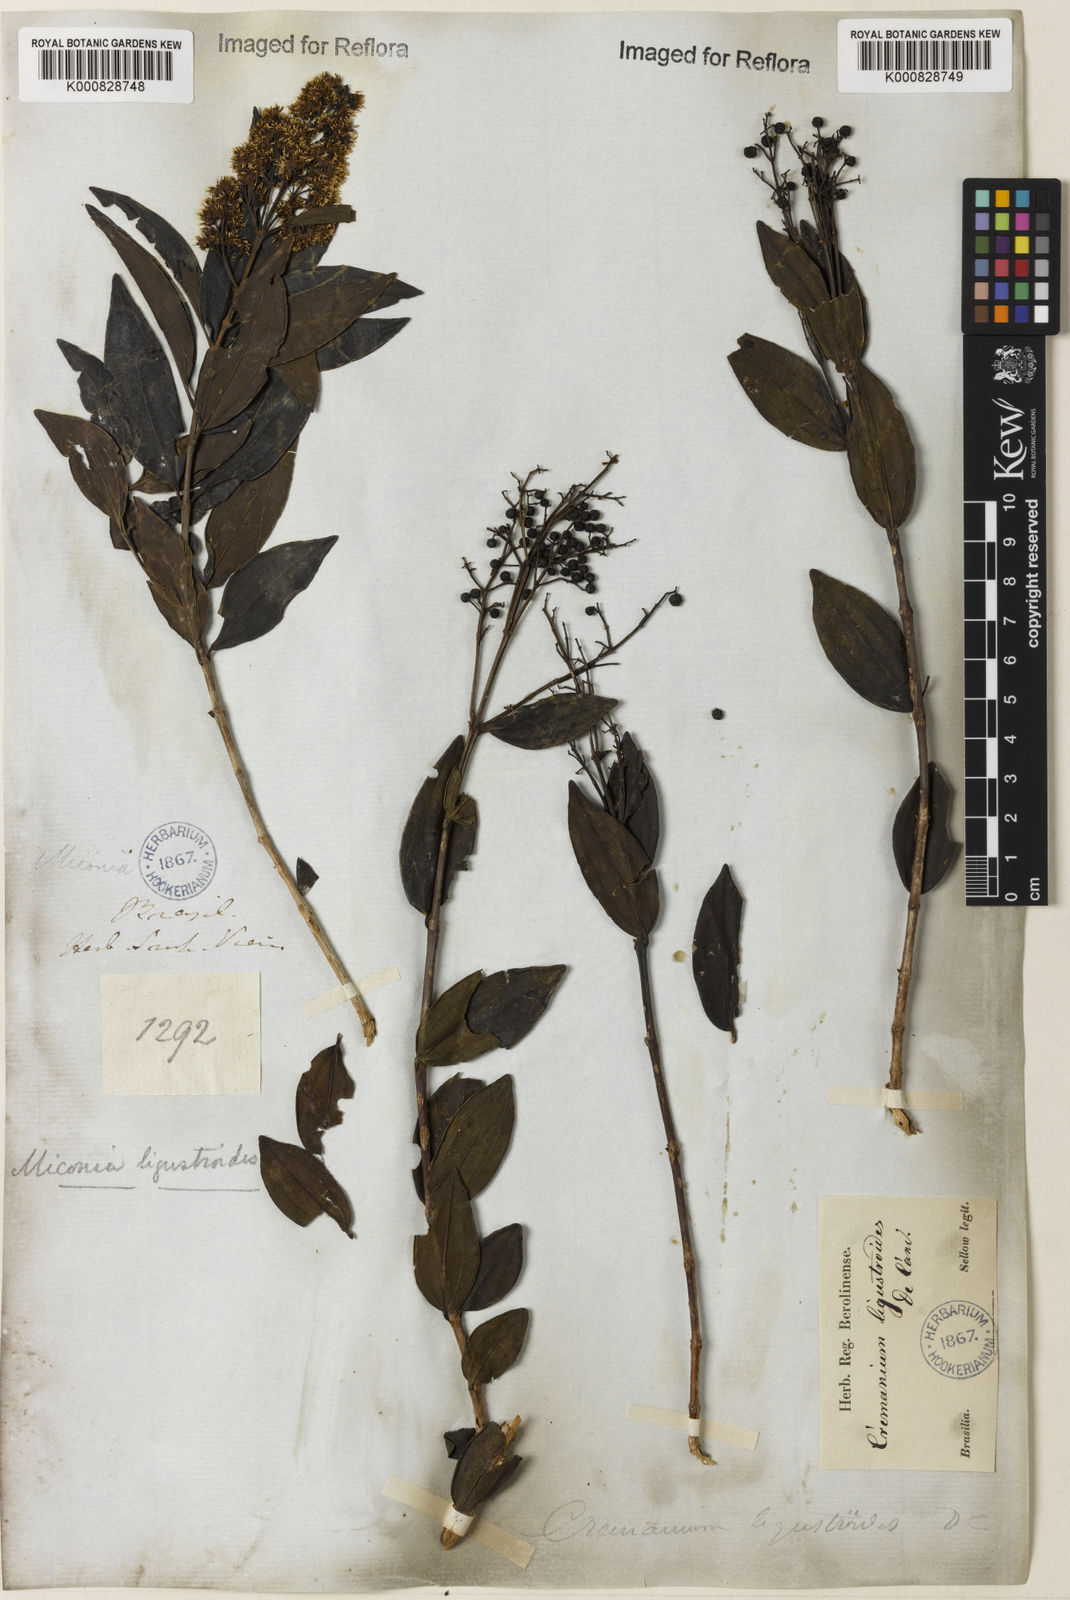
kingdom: Plantae
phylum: Tracheophyta
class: Magnoliopsida
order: Myrtales
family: Melastomataceae
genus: Miconia
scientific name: Miconia ligustroides
